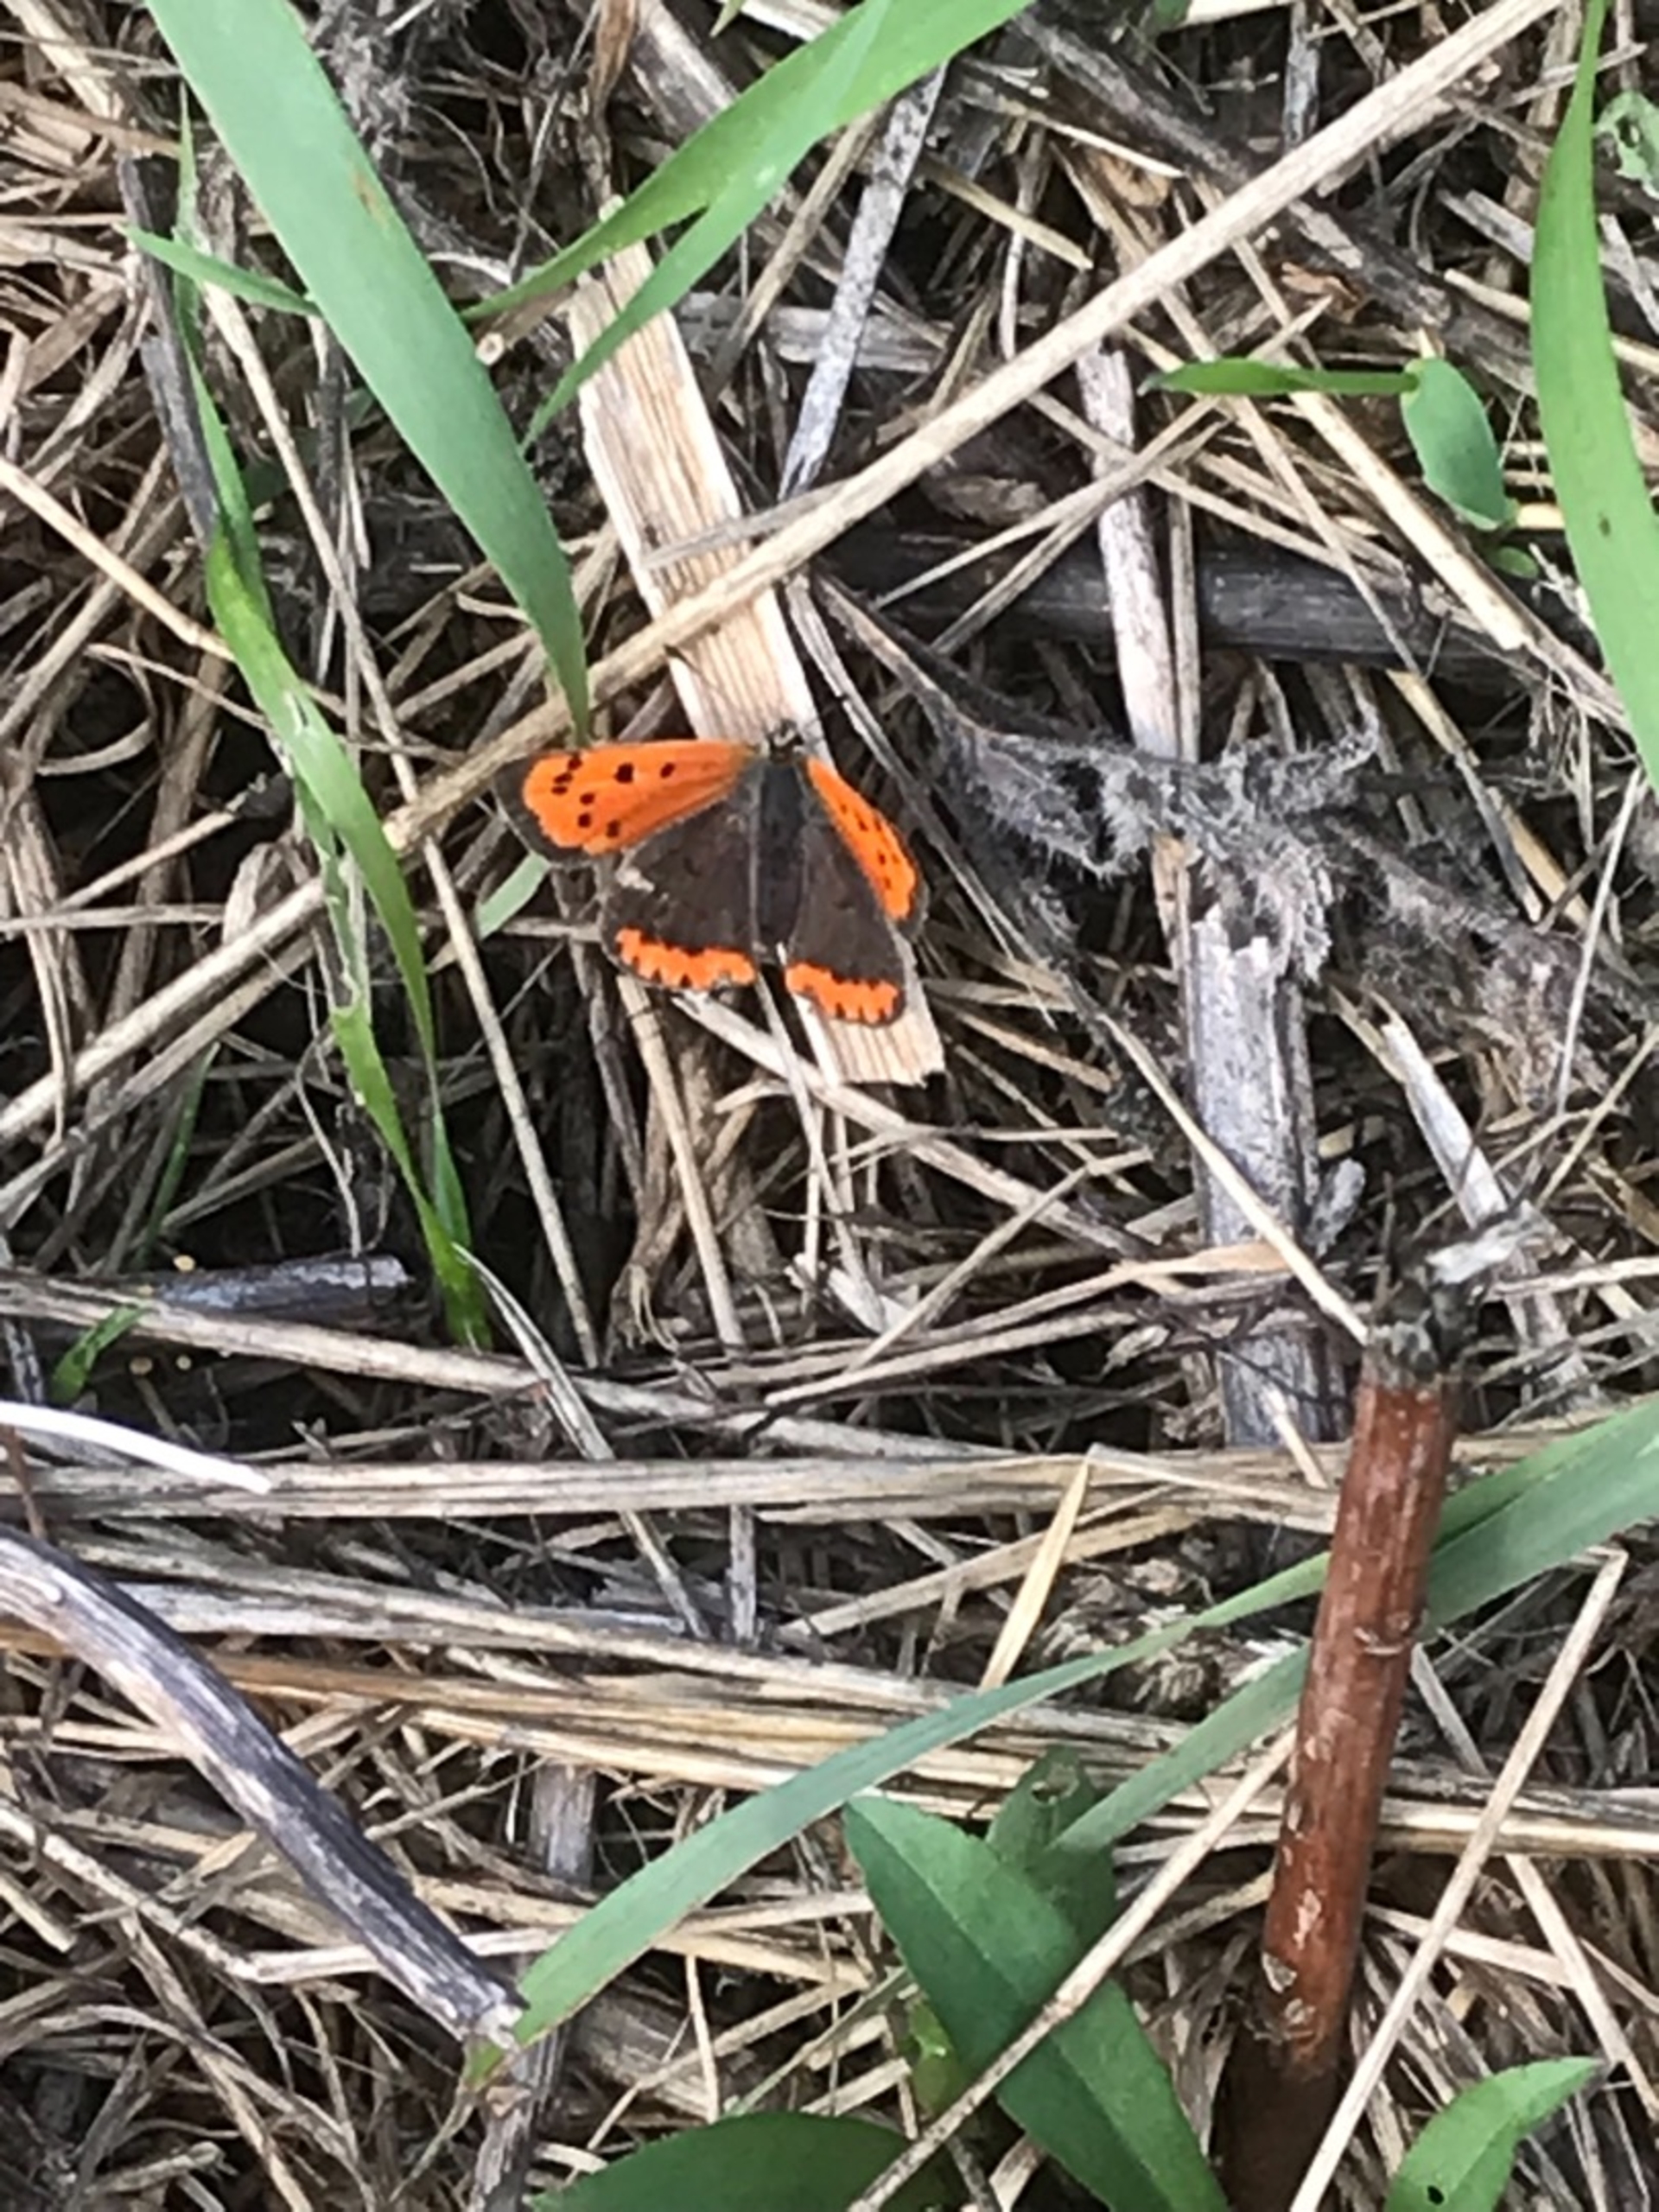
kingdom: Animalia
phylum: Arthropoda
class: Insecta
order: Lepidoptera
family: Lycaenidae
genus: Lycaena
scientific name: Lycaena phlaeas
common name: Lille ildfugl
